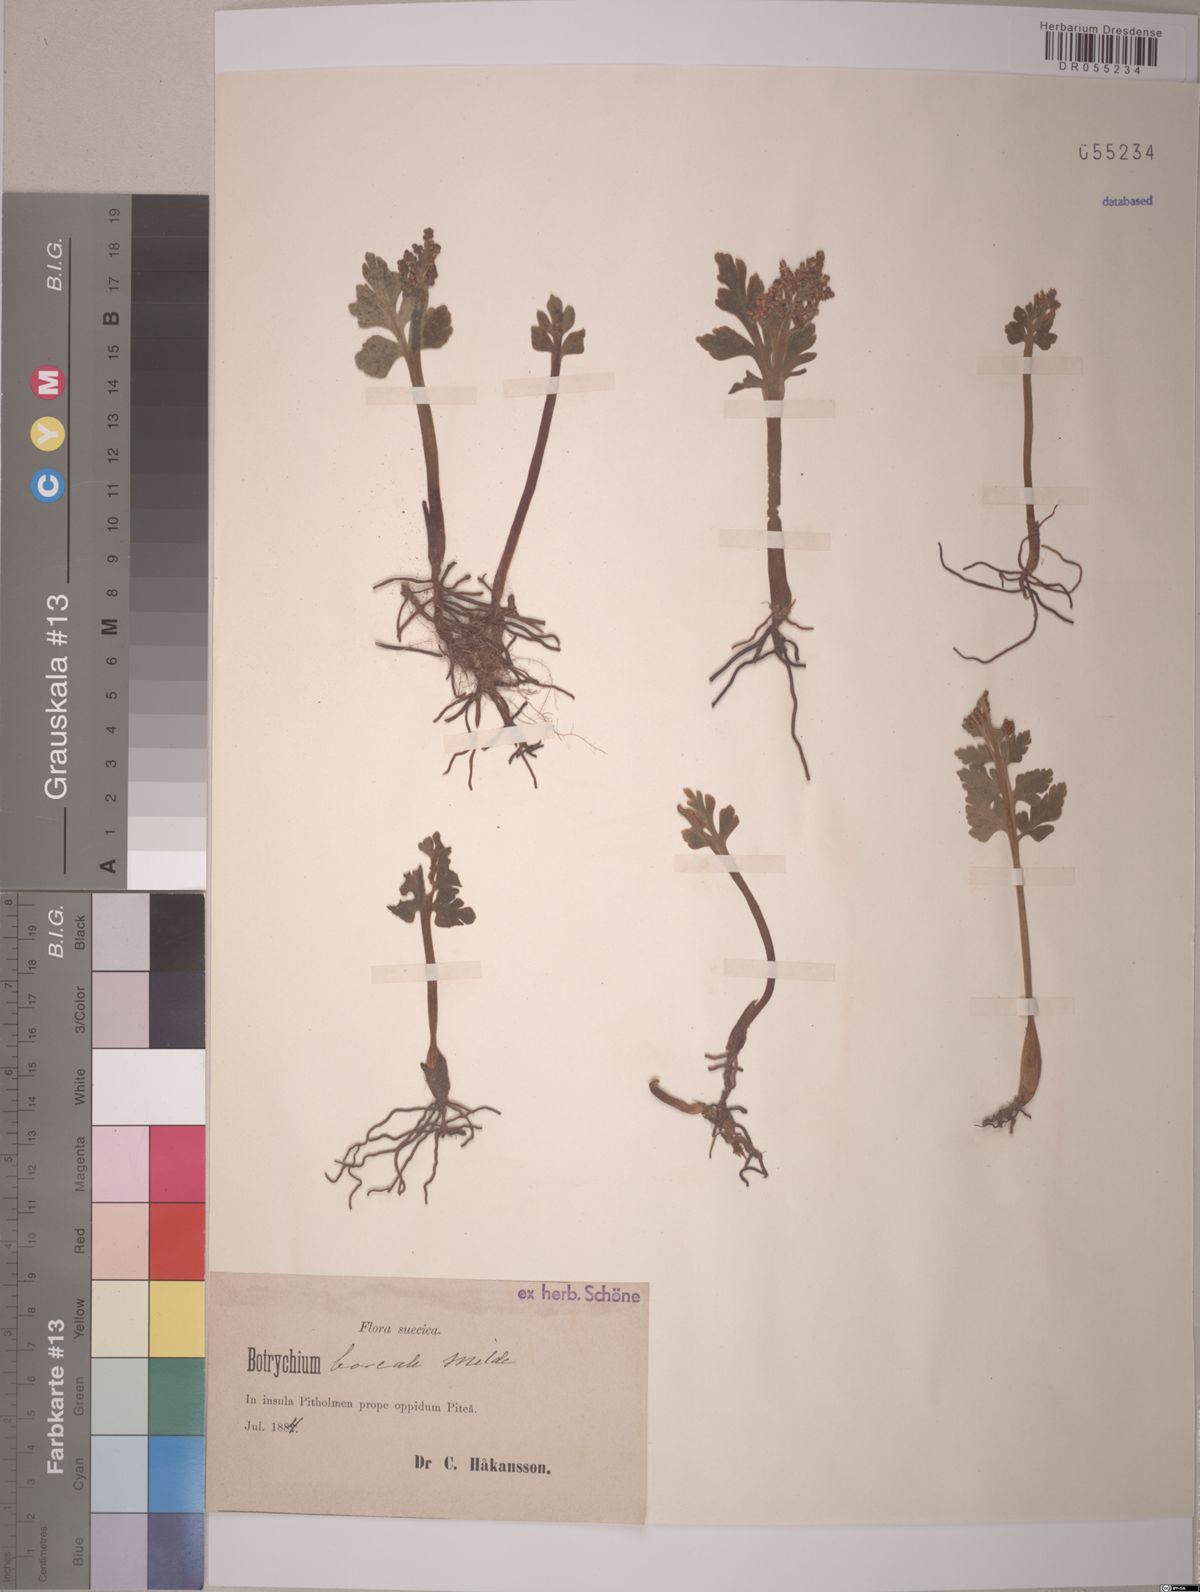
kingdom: Plantae
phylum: Tracheophyta
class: Polypodiopsida
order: Ophioglossales
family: Ophioglossaceae
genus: Botrychium
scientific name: Botrychium boreale
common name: Boreal moonwort
